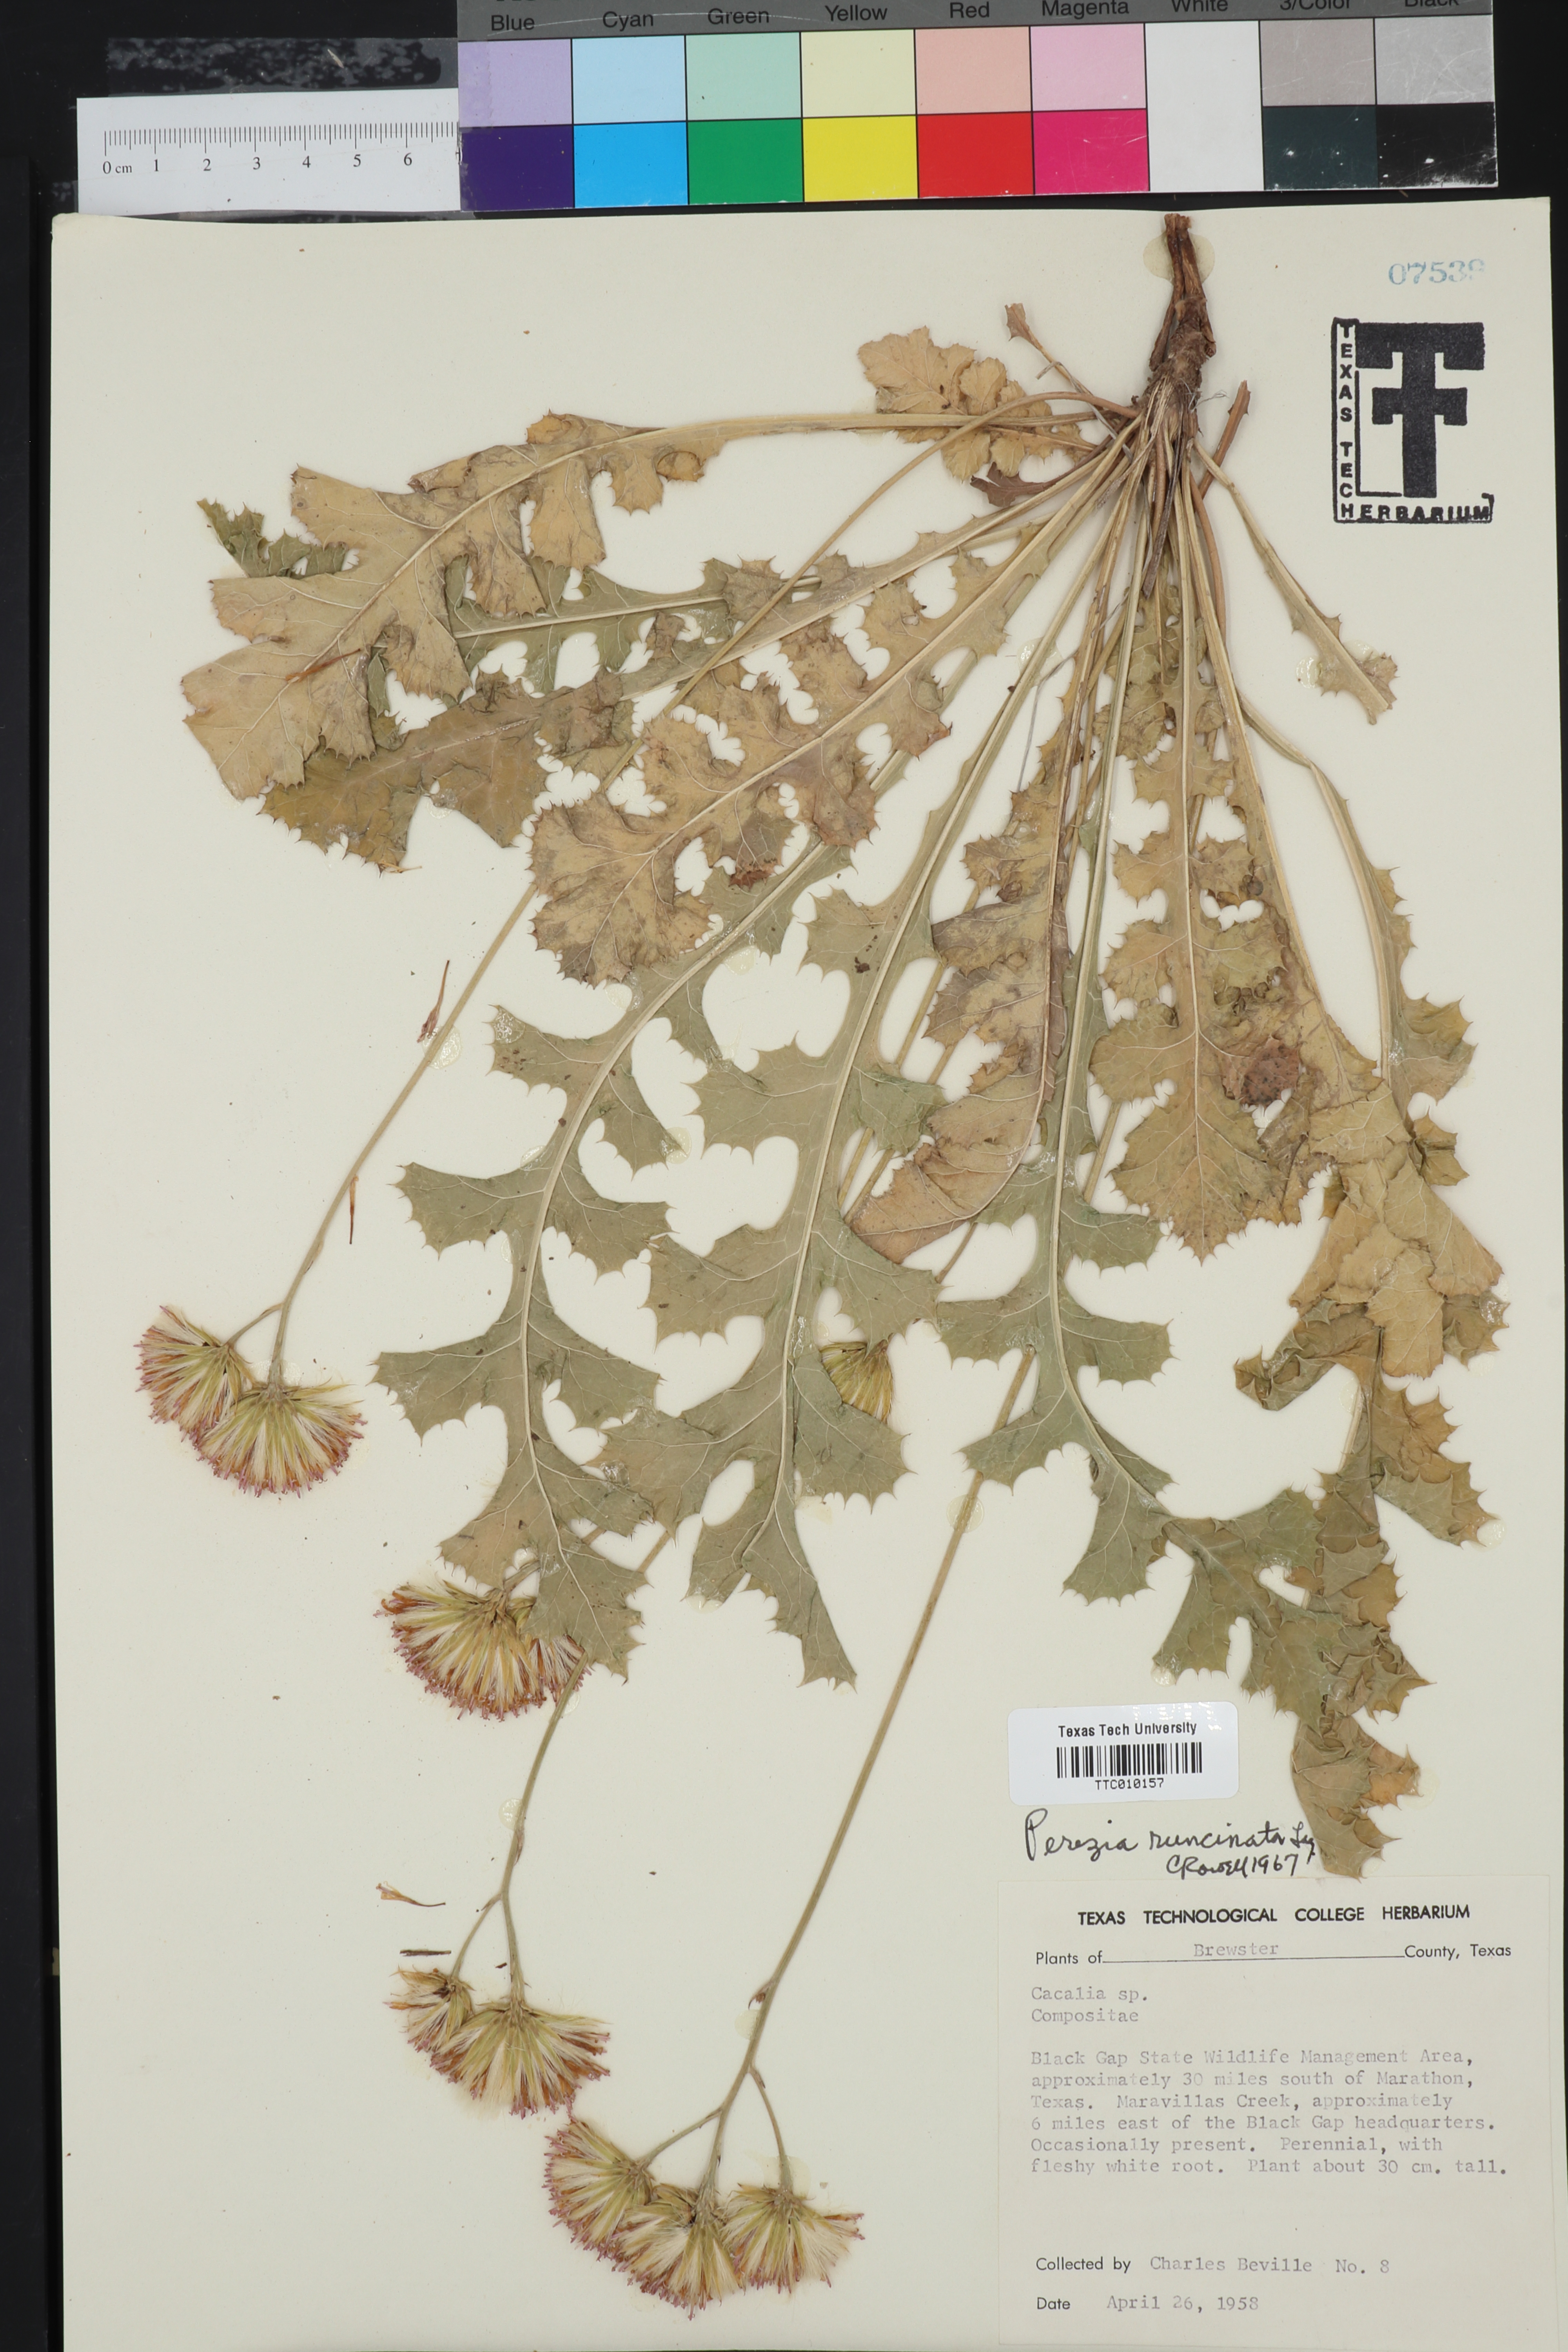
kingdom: Plantae
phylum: Tracheophyta
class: Magnoliopsida
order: Asterales
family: Asteraceae
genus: Acourtia
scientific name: Acourtia runcinata
